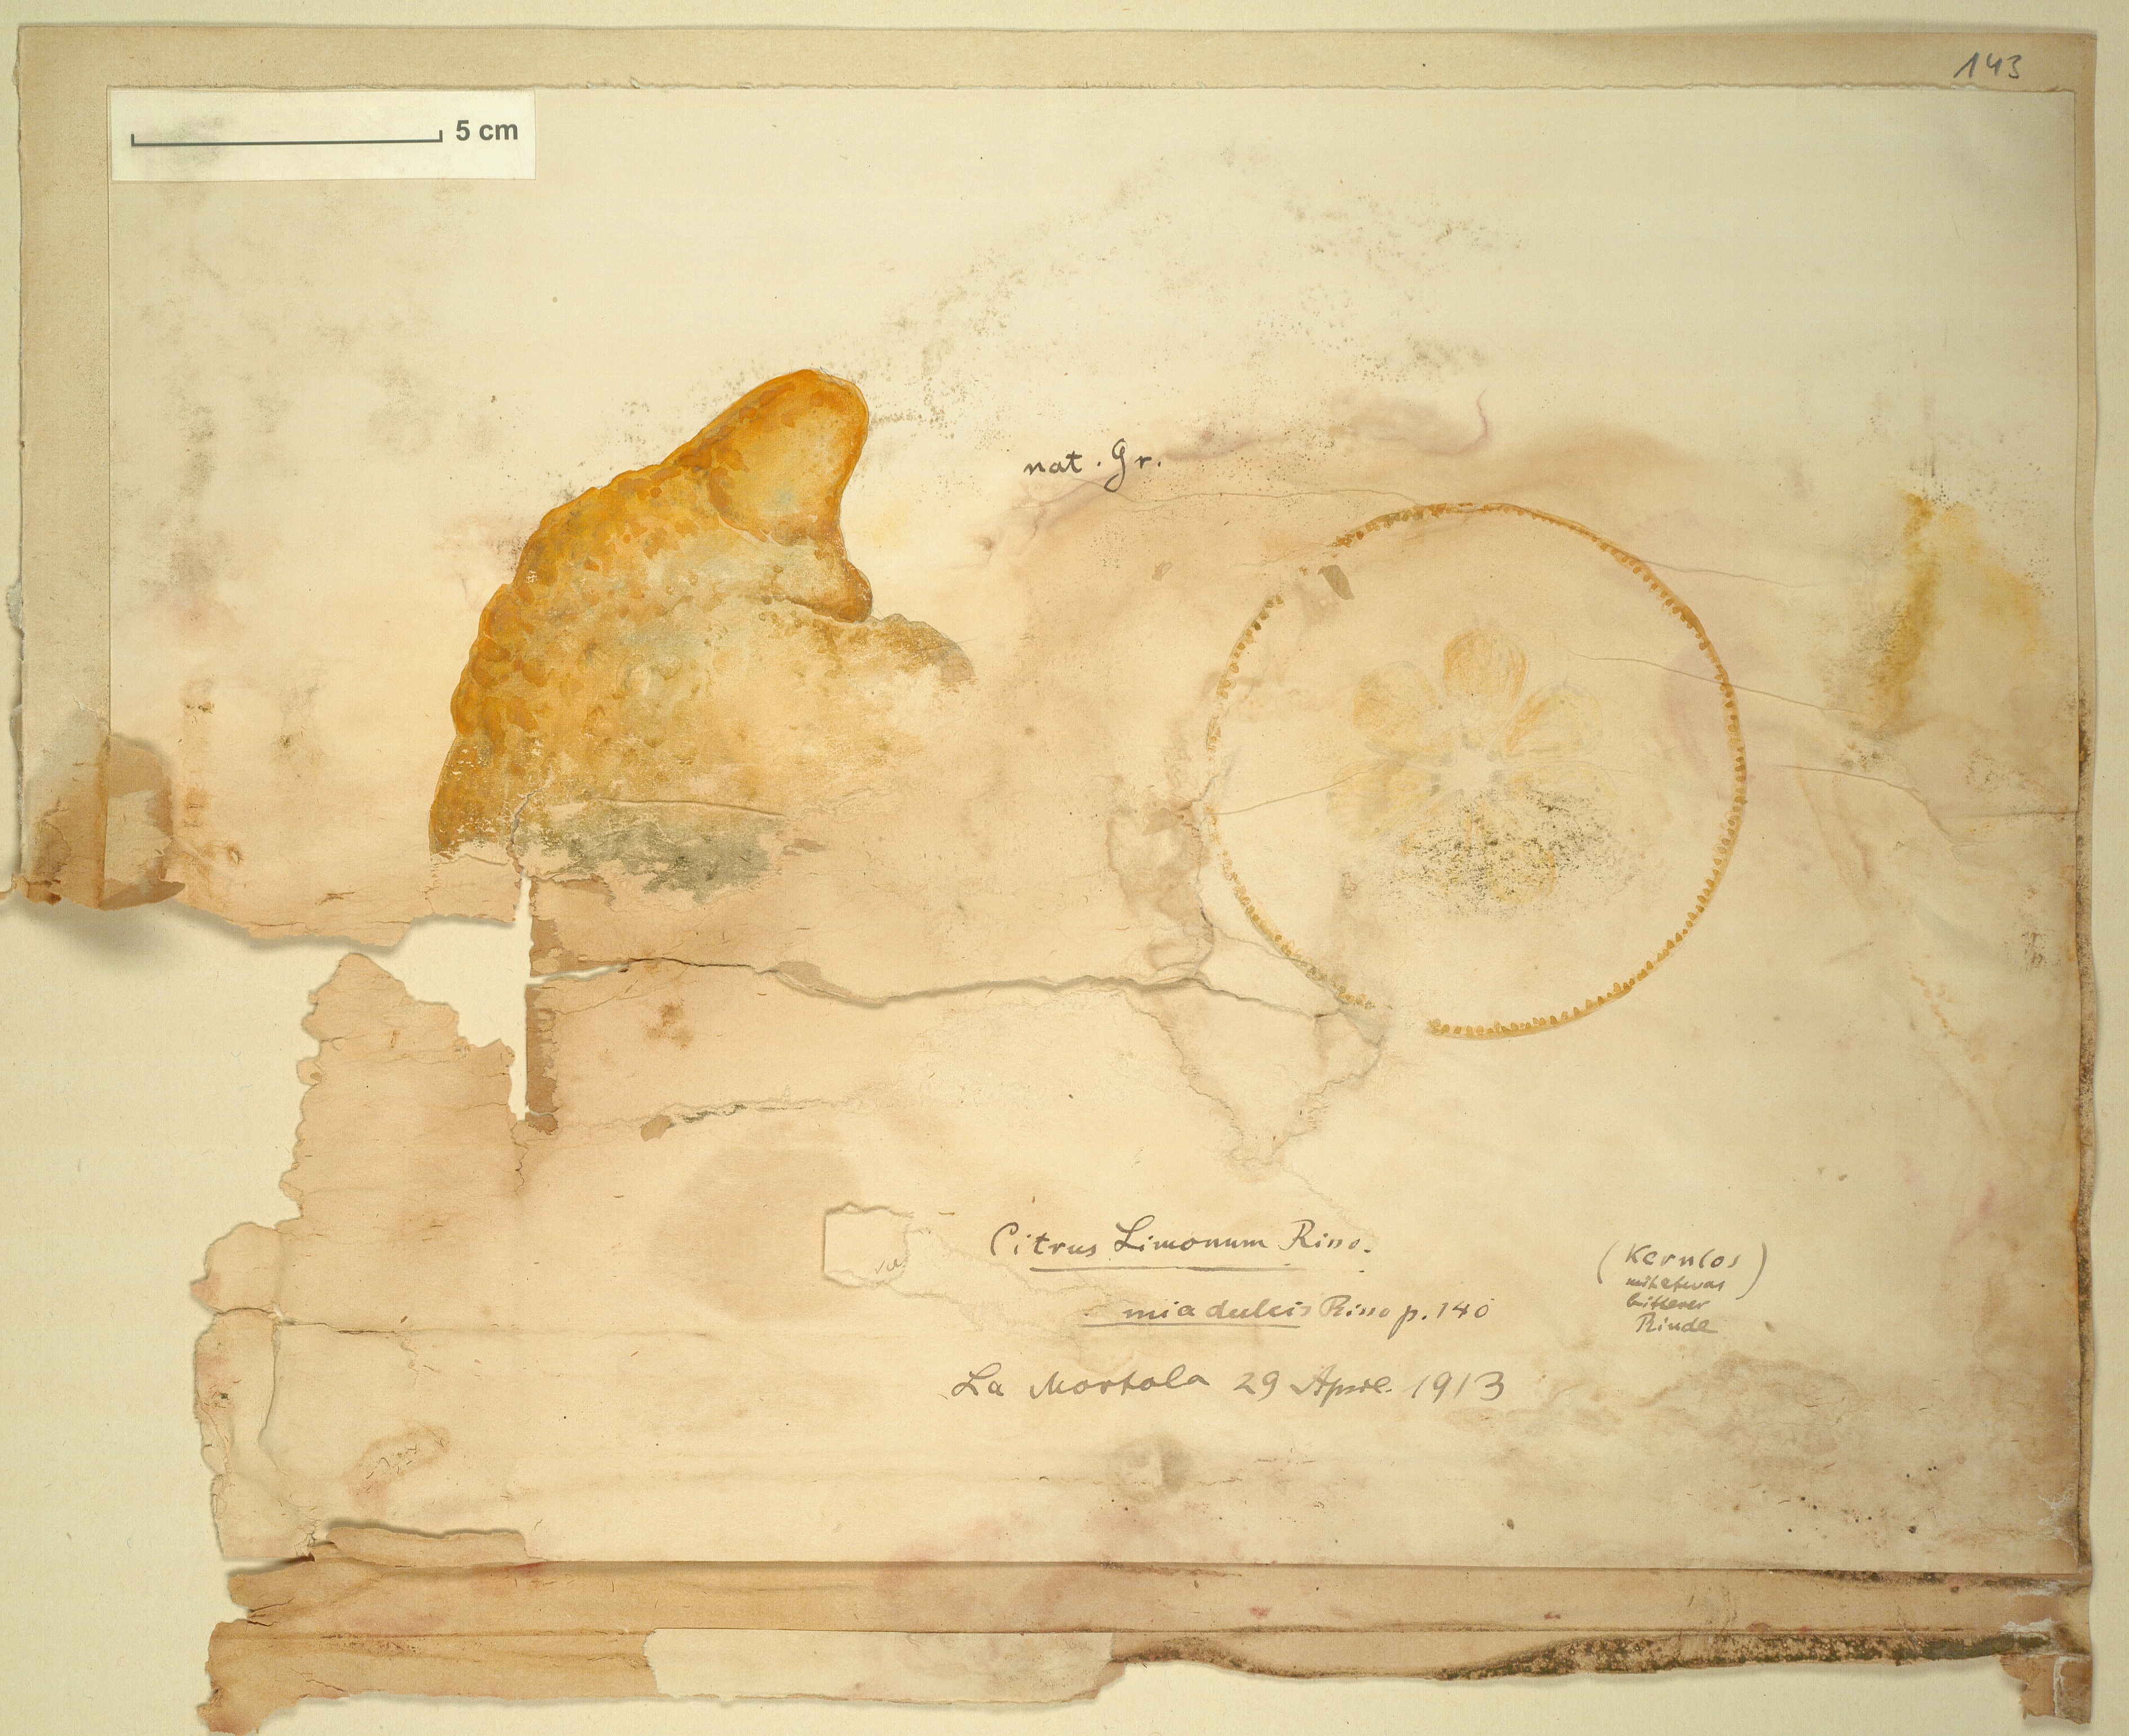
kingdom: Plantae
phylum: Tracheophyta
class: Magnoliopsida
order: Sapindales
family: Rutaceae
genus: Citrus
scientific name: Citrus limon
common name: Lemon
